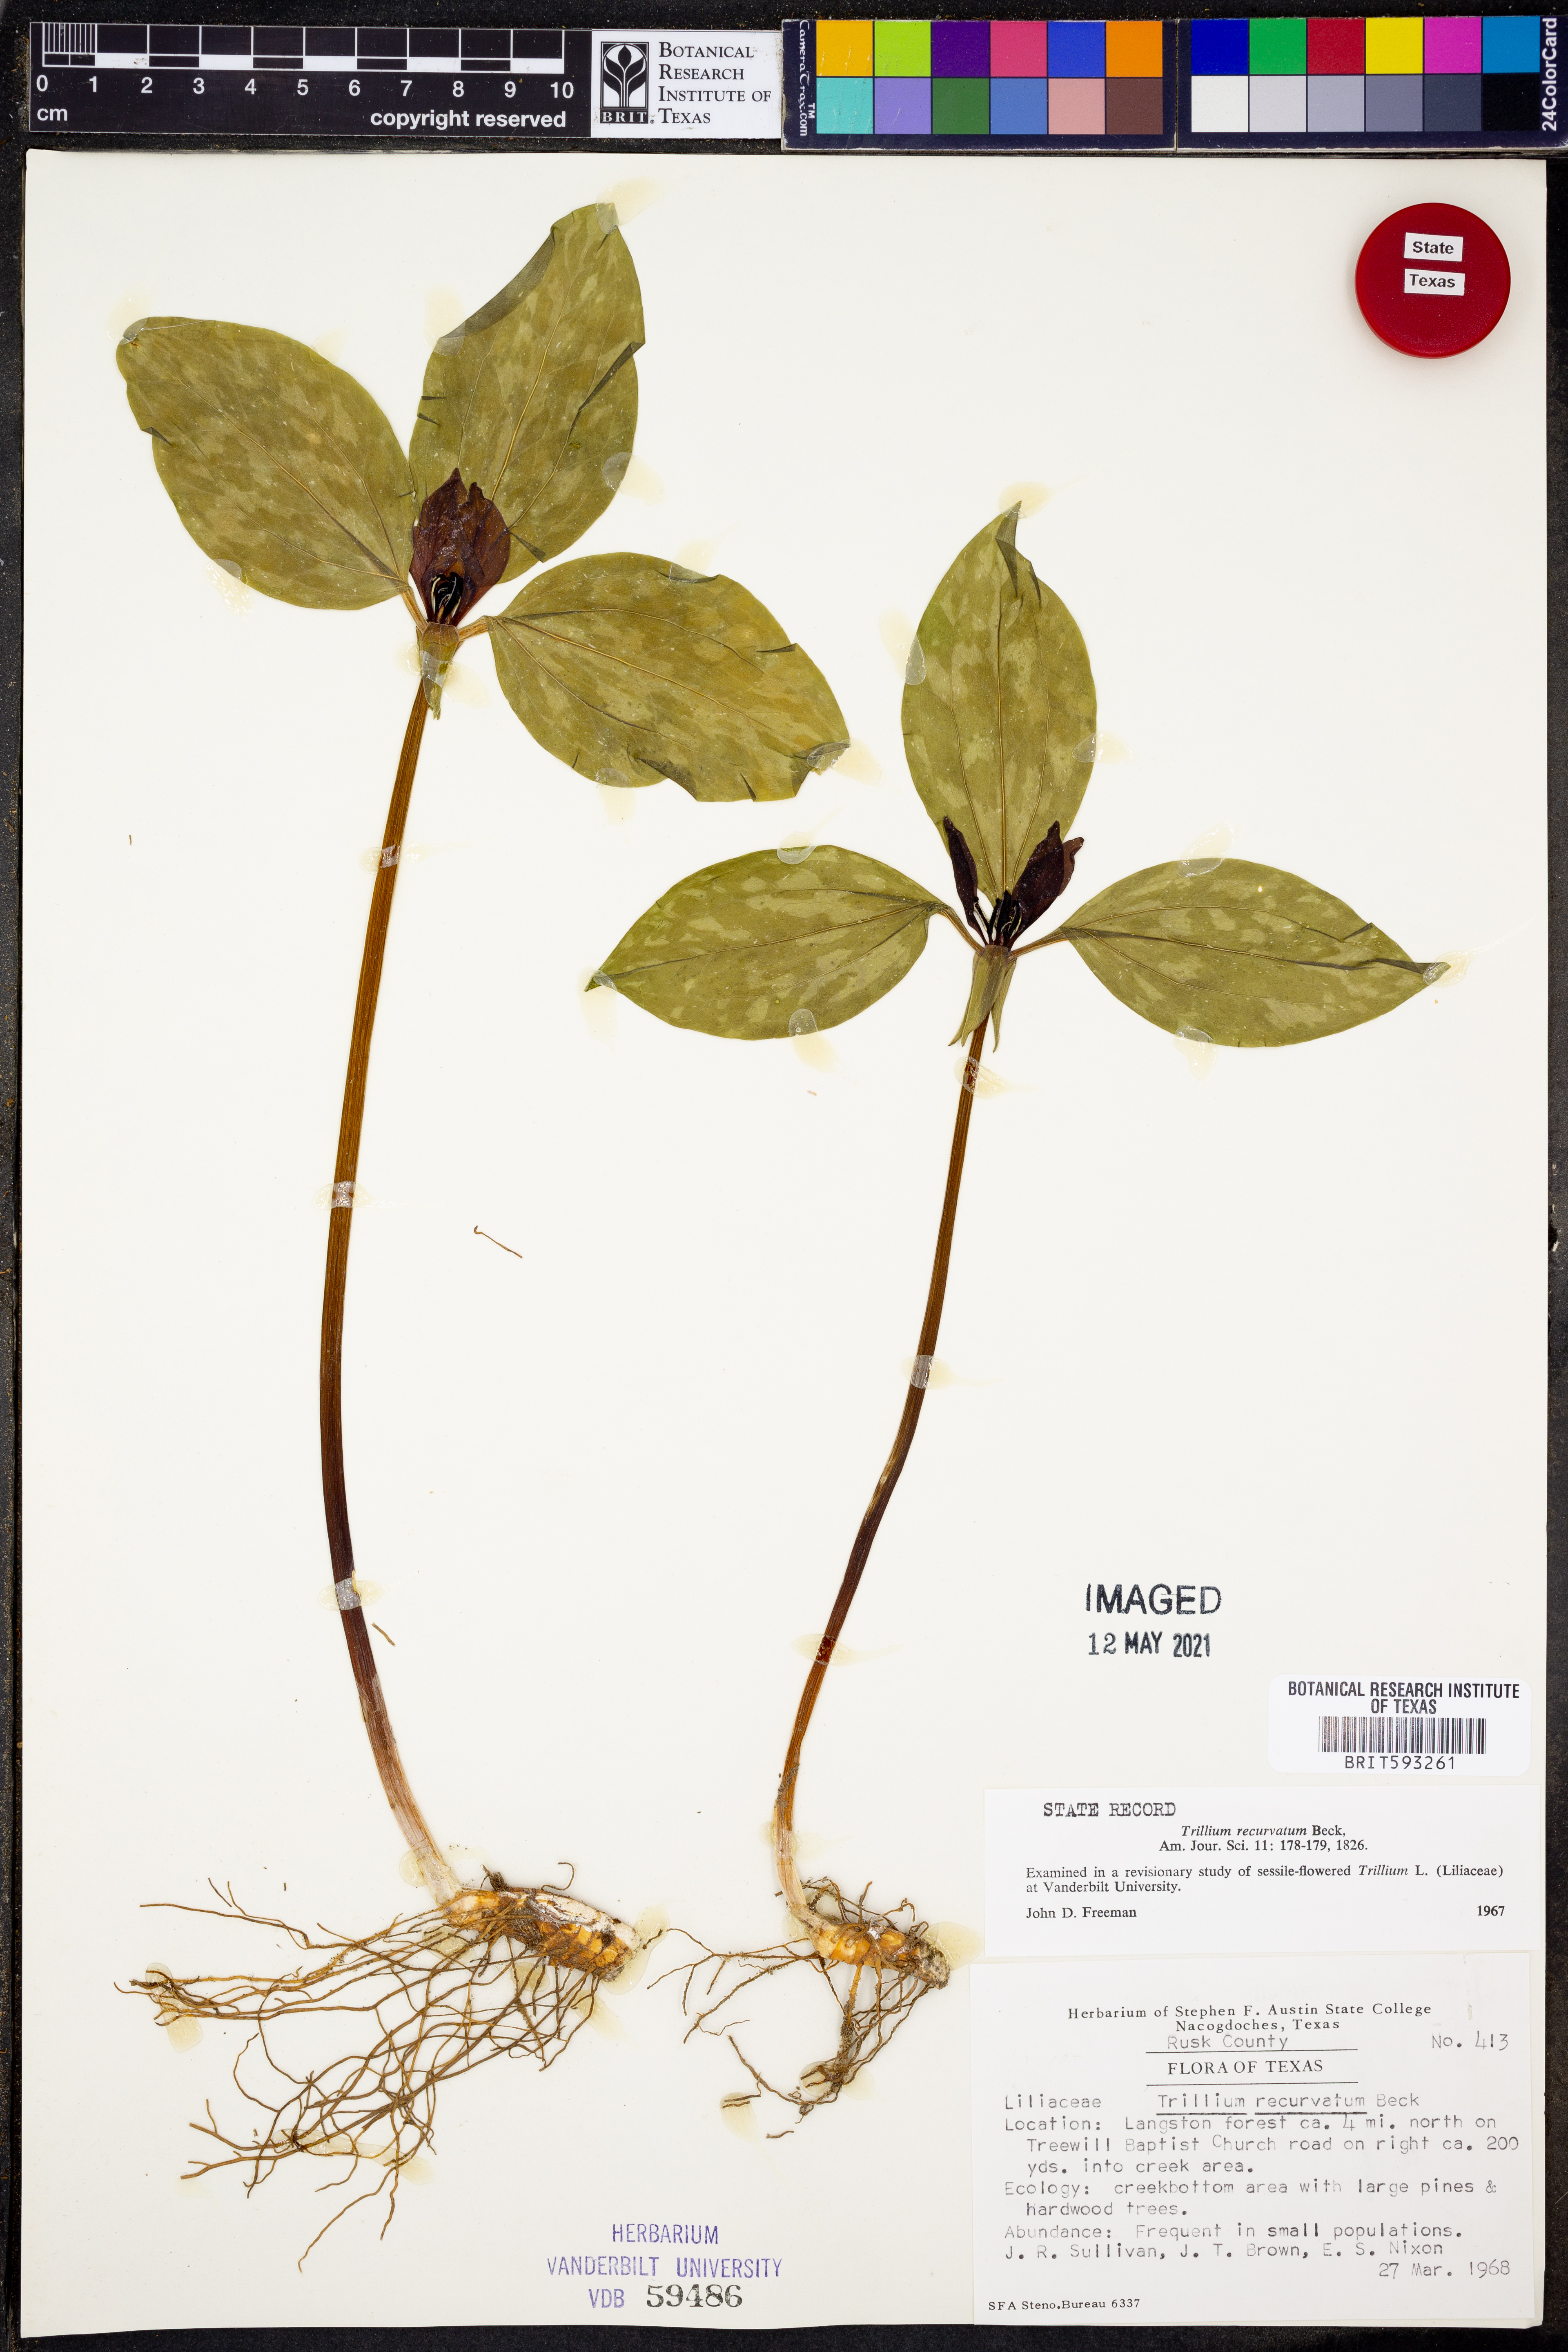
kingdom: Plantae
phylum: Tracheophyta
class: Liliopsida
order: Liliales
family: Melanthiaceae
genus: Trillium
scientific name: Trillium recurvatum
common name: Bloody butcher
